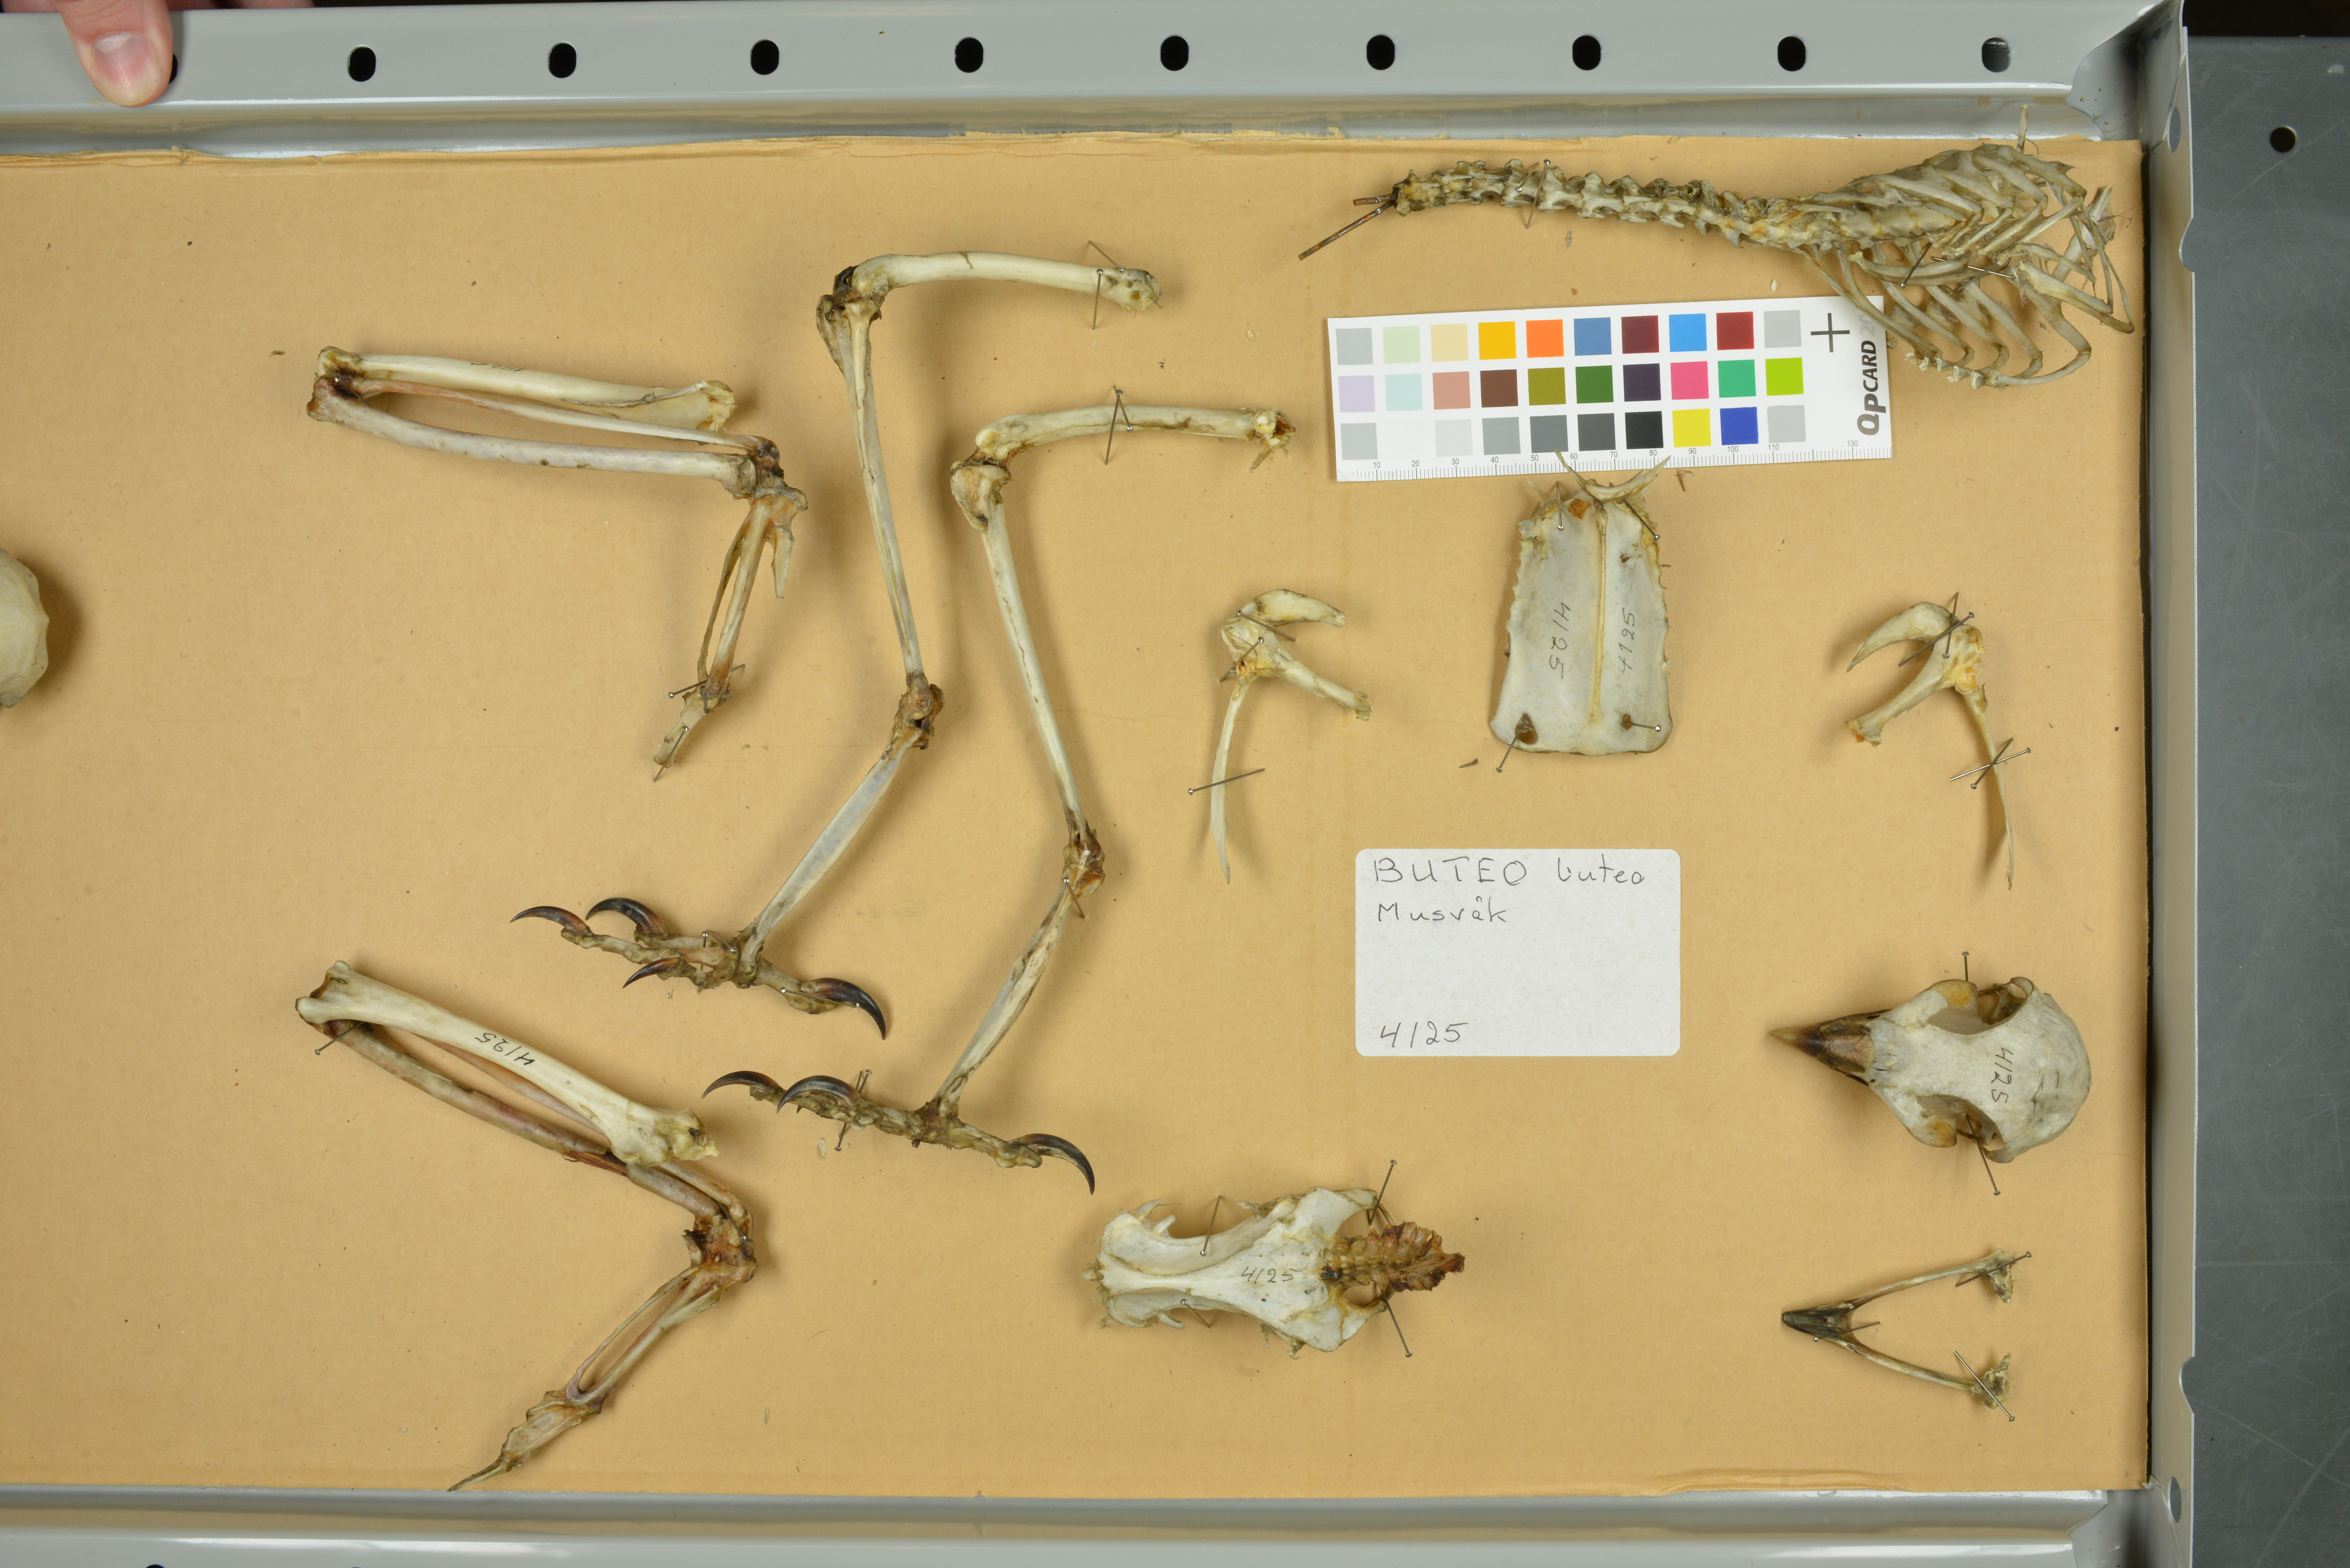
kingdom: Animalia
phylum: Chordata
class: Aves
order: Accipitriformes
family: Accipitridae
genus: Buteo
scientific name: Buteo buteo
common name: Common buzzard
